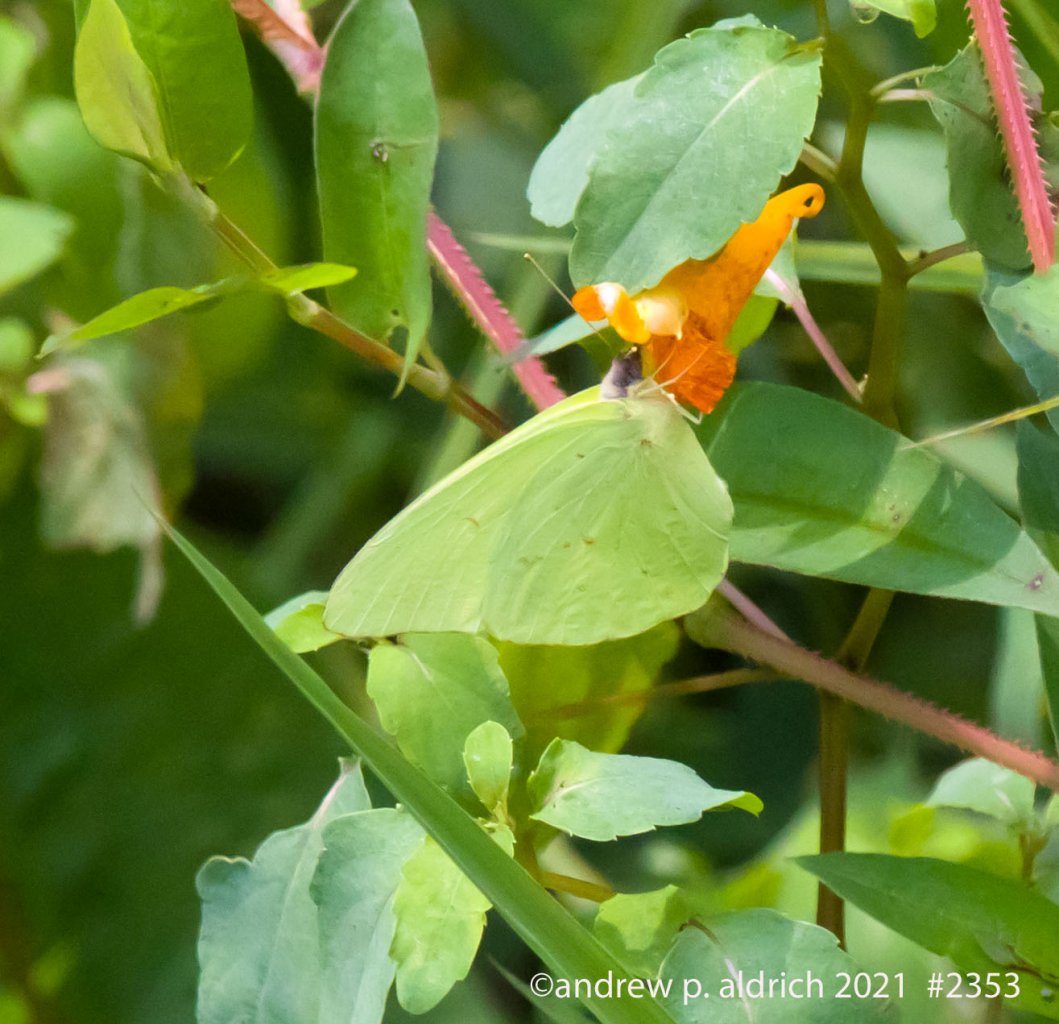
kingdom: Animalia
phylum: Arthropoda
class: Insecta
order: Lepidoptera
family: Pieridae
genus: Phoebis
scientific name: Phoebis sennae
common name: Cloudless Sulphur
